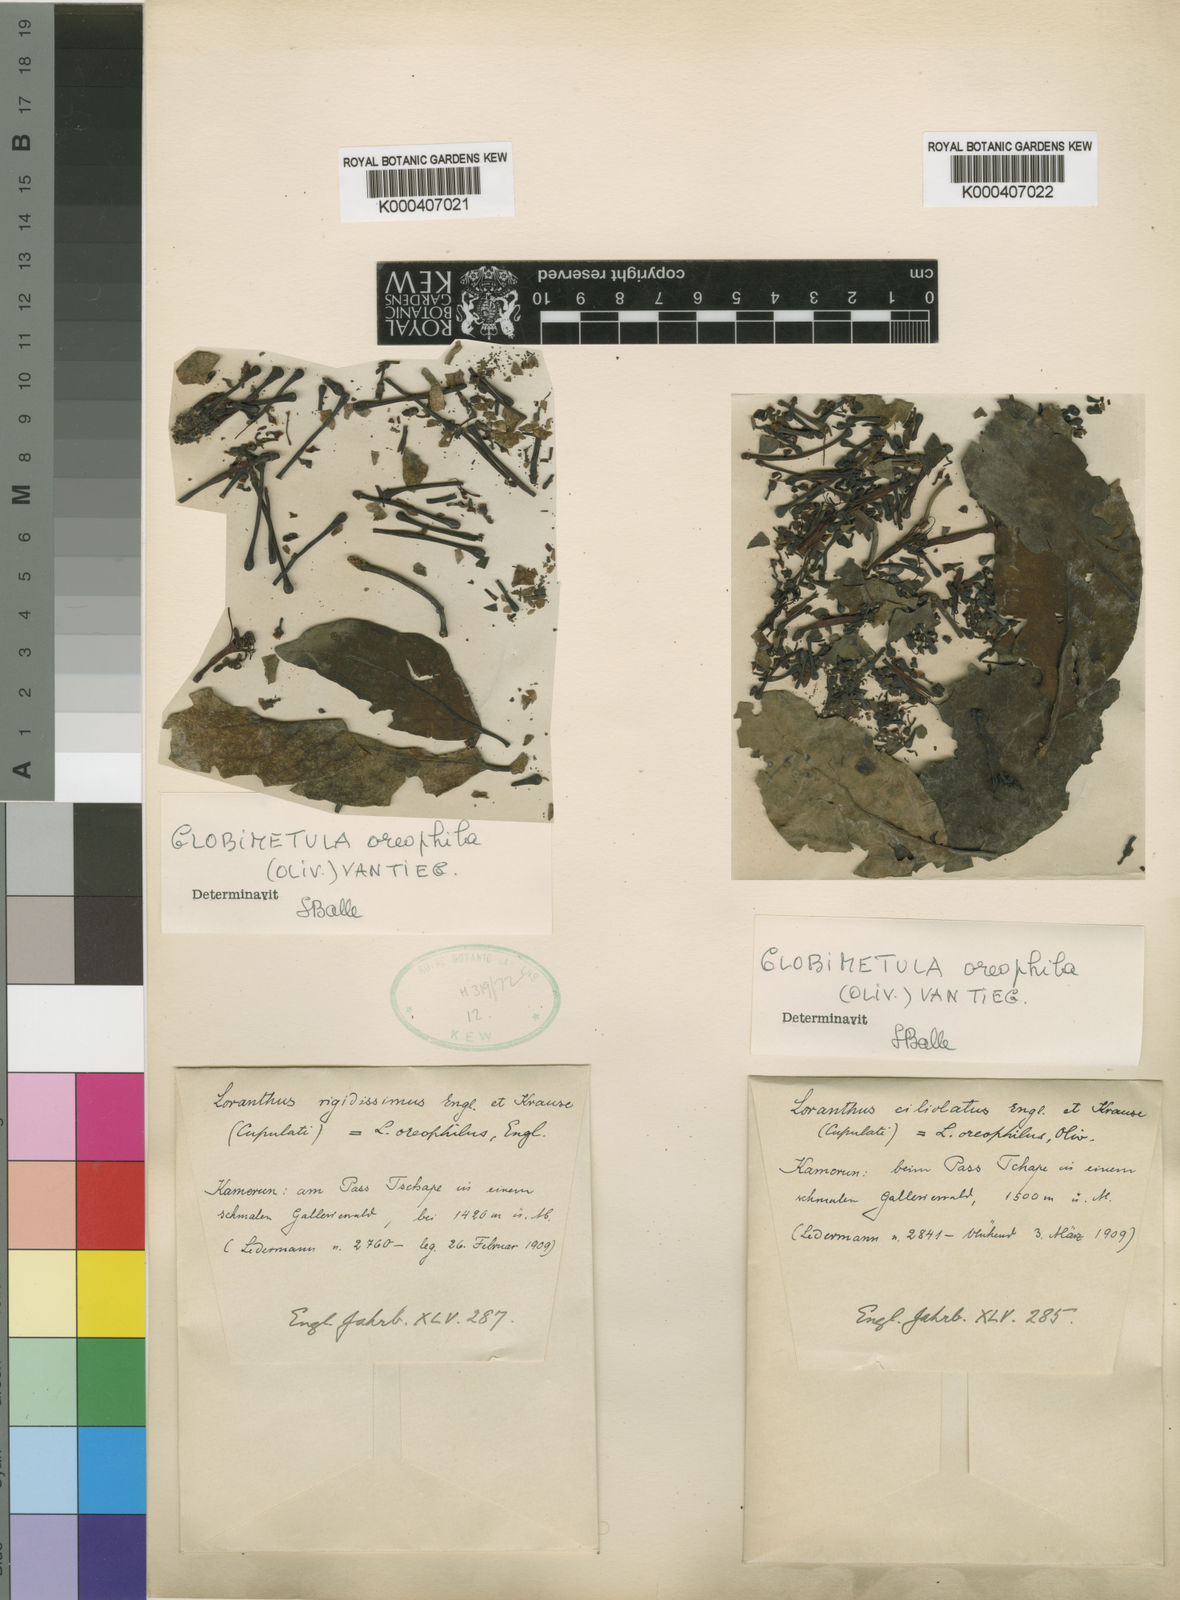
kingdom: Plantae
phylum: Tracheophyta
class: Magnoliopsida
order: Santalales
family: Loranthaceae
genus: Globimetula
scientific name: Globimetula oreophila
